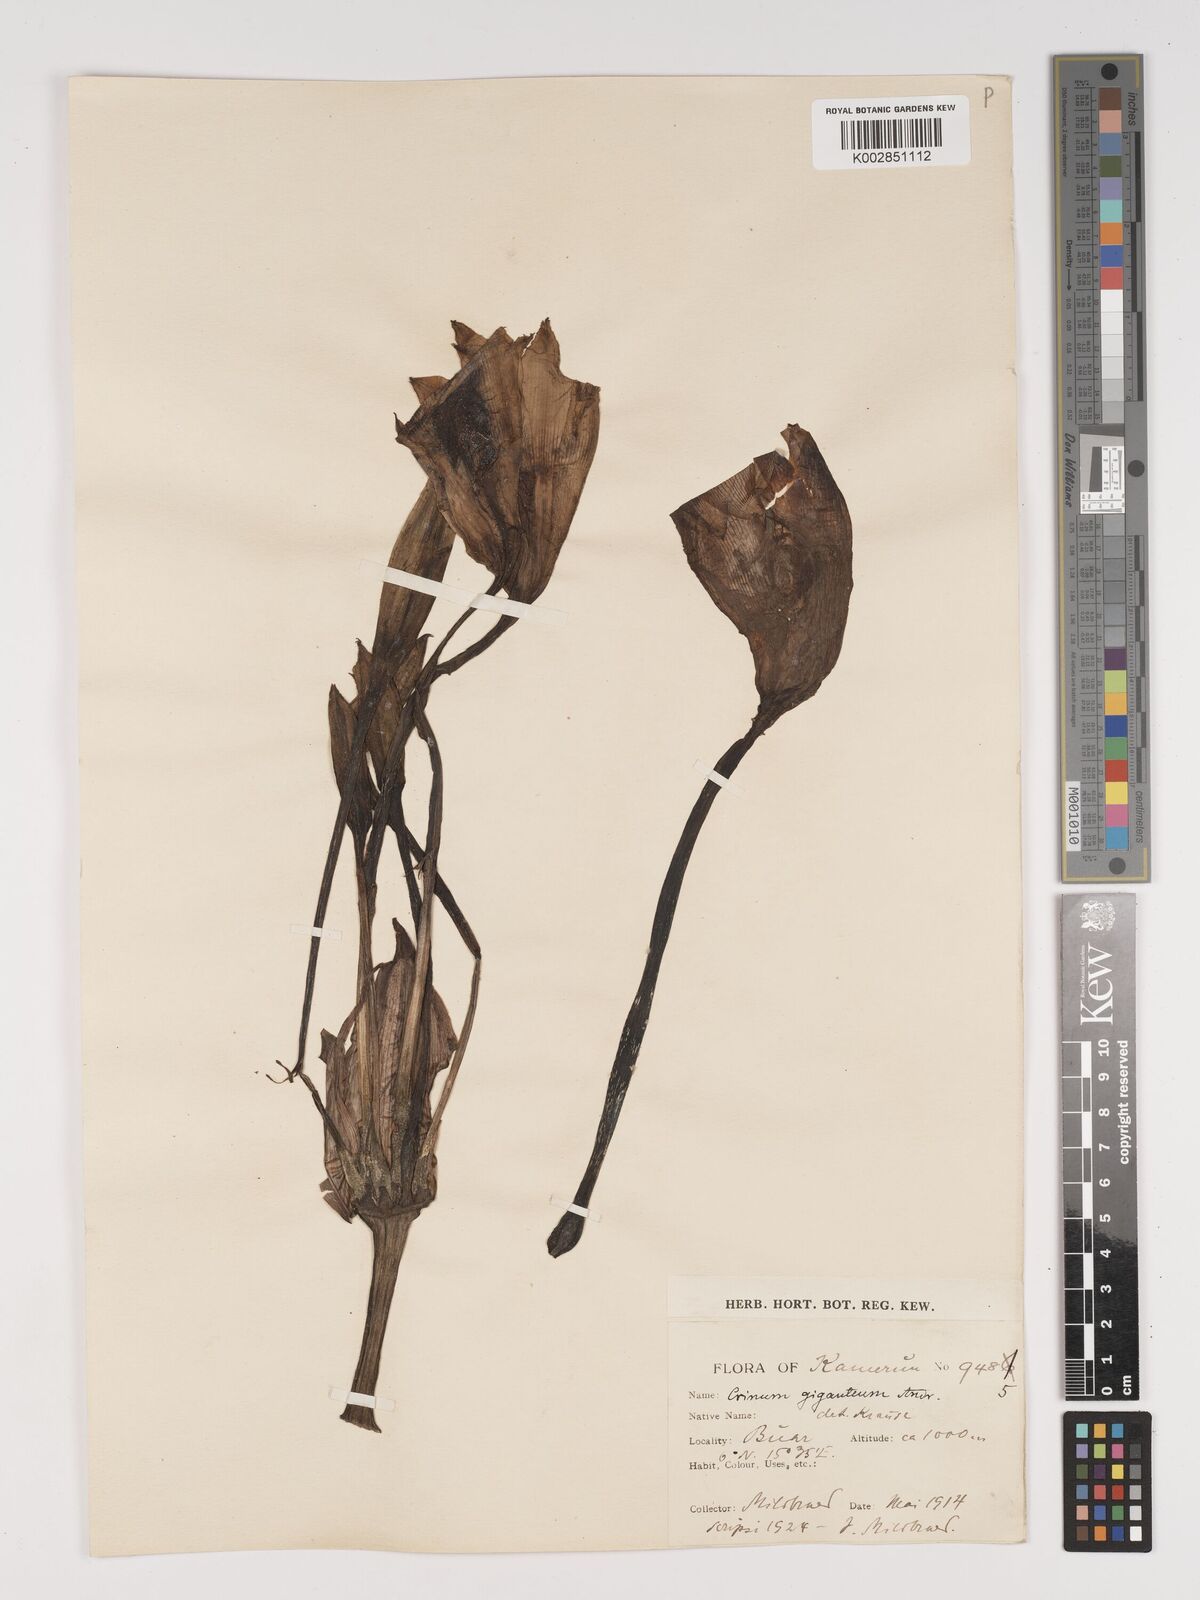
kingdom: Plantae
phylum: Tracheophyta
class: Liliopsida
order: Asparagales
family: Amaryllidaceae
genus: Crinum
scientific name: Crinum jagus
